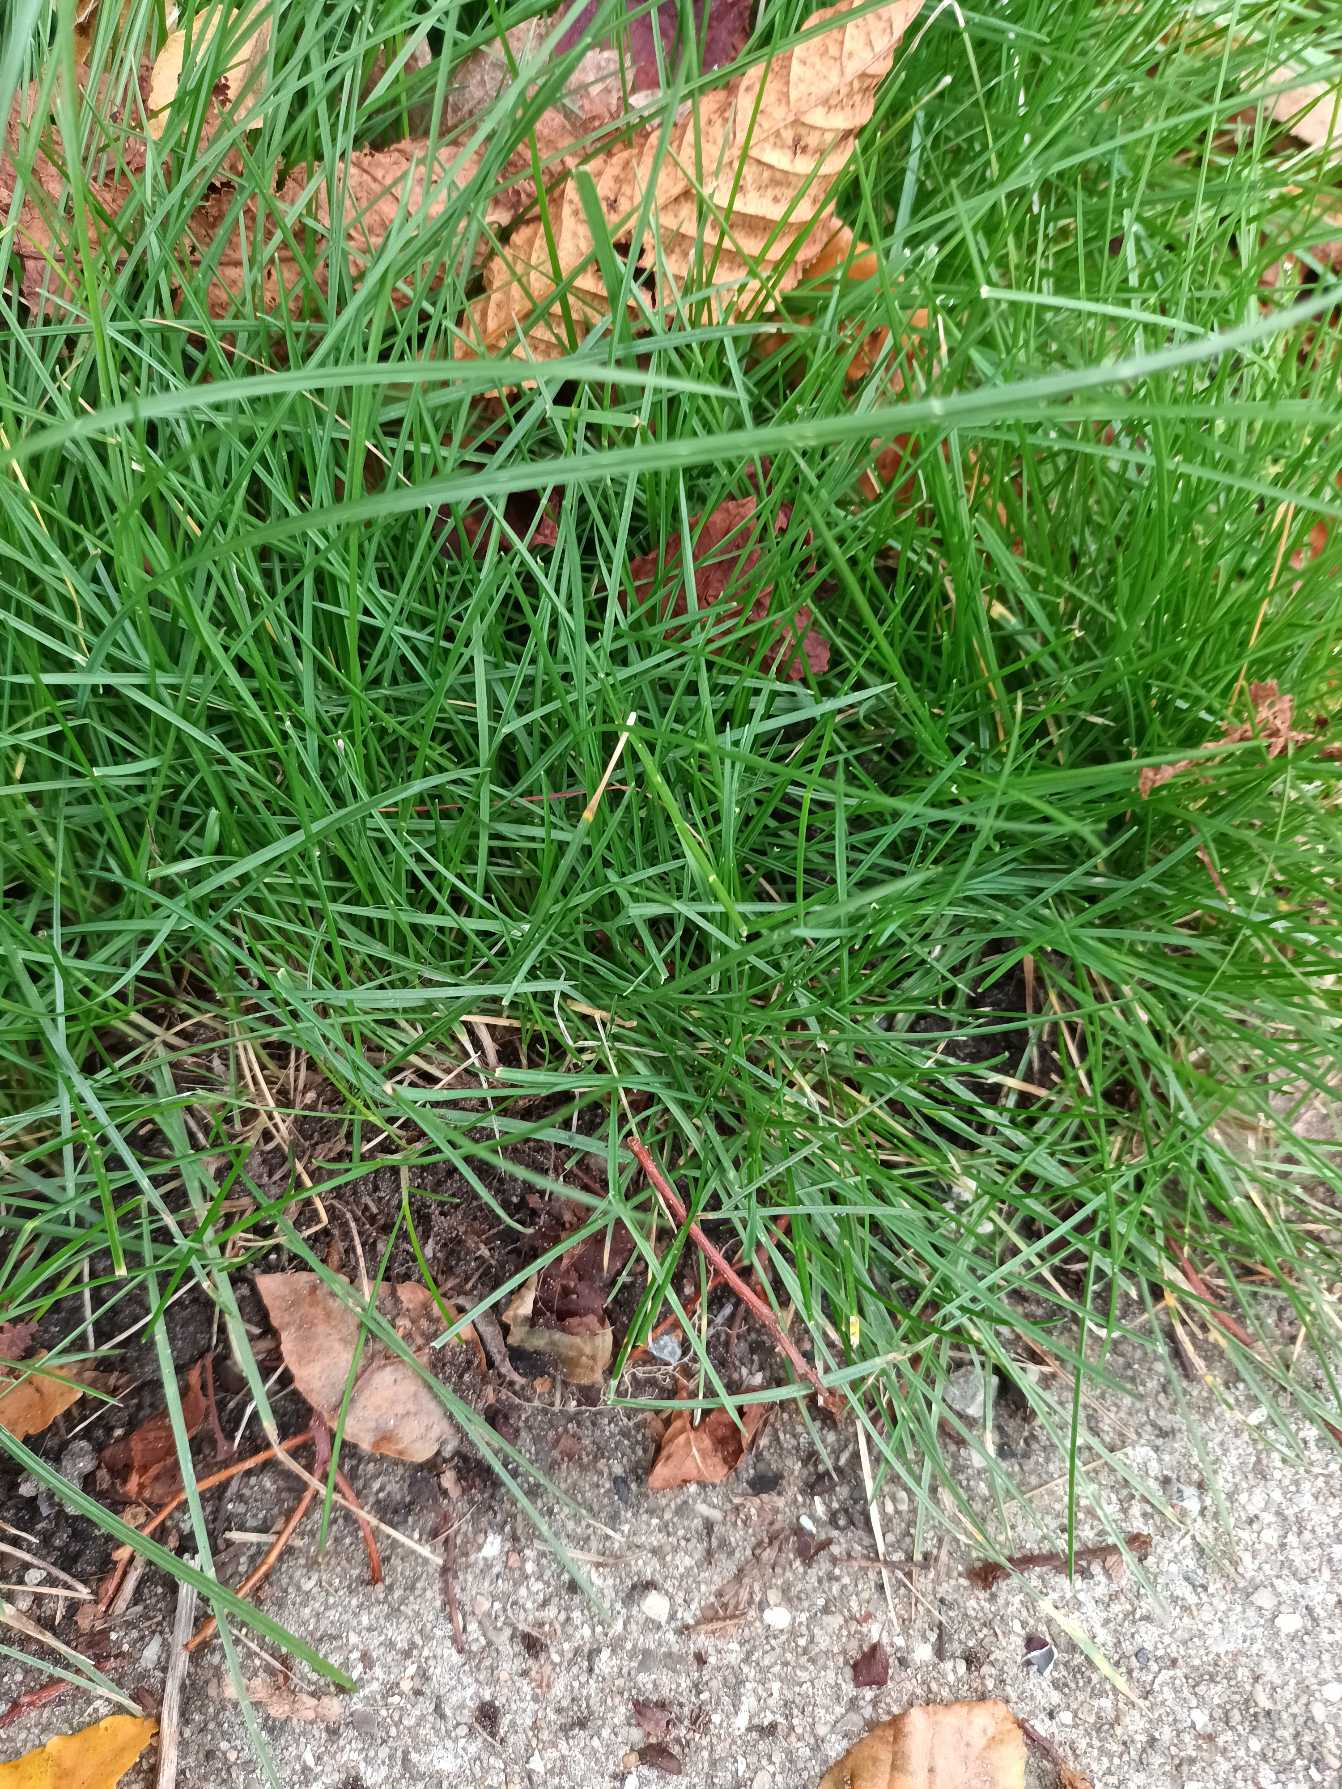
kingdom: Plantae
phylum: Tracheophyta
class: Liliopsida
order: Poales
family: Poaceae
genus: Festuca
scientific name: Festuca nigrescens
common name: Vej-svingel
